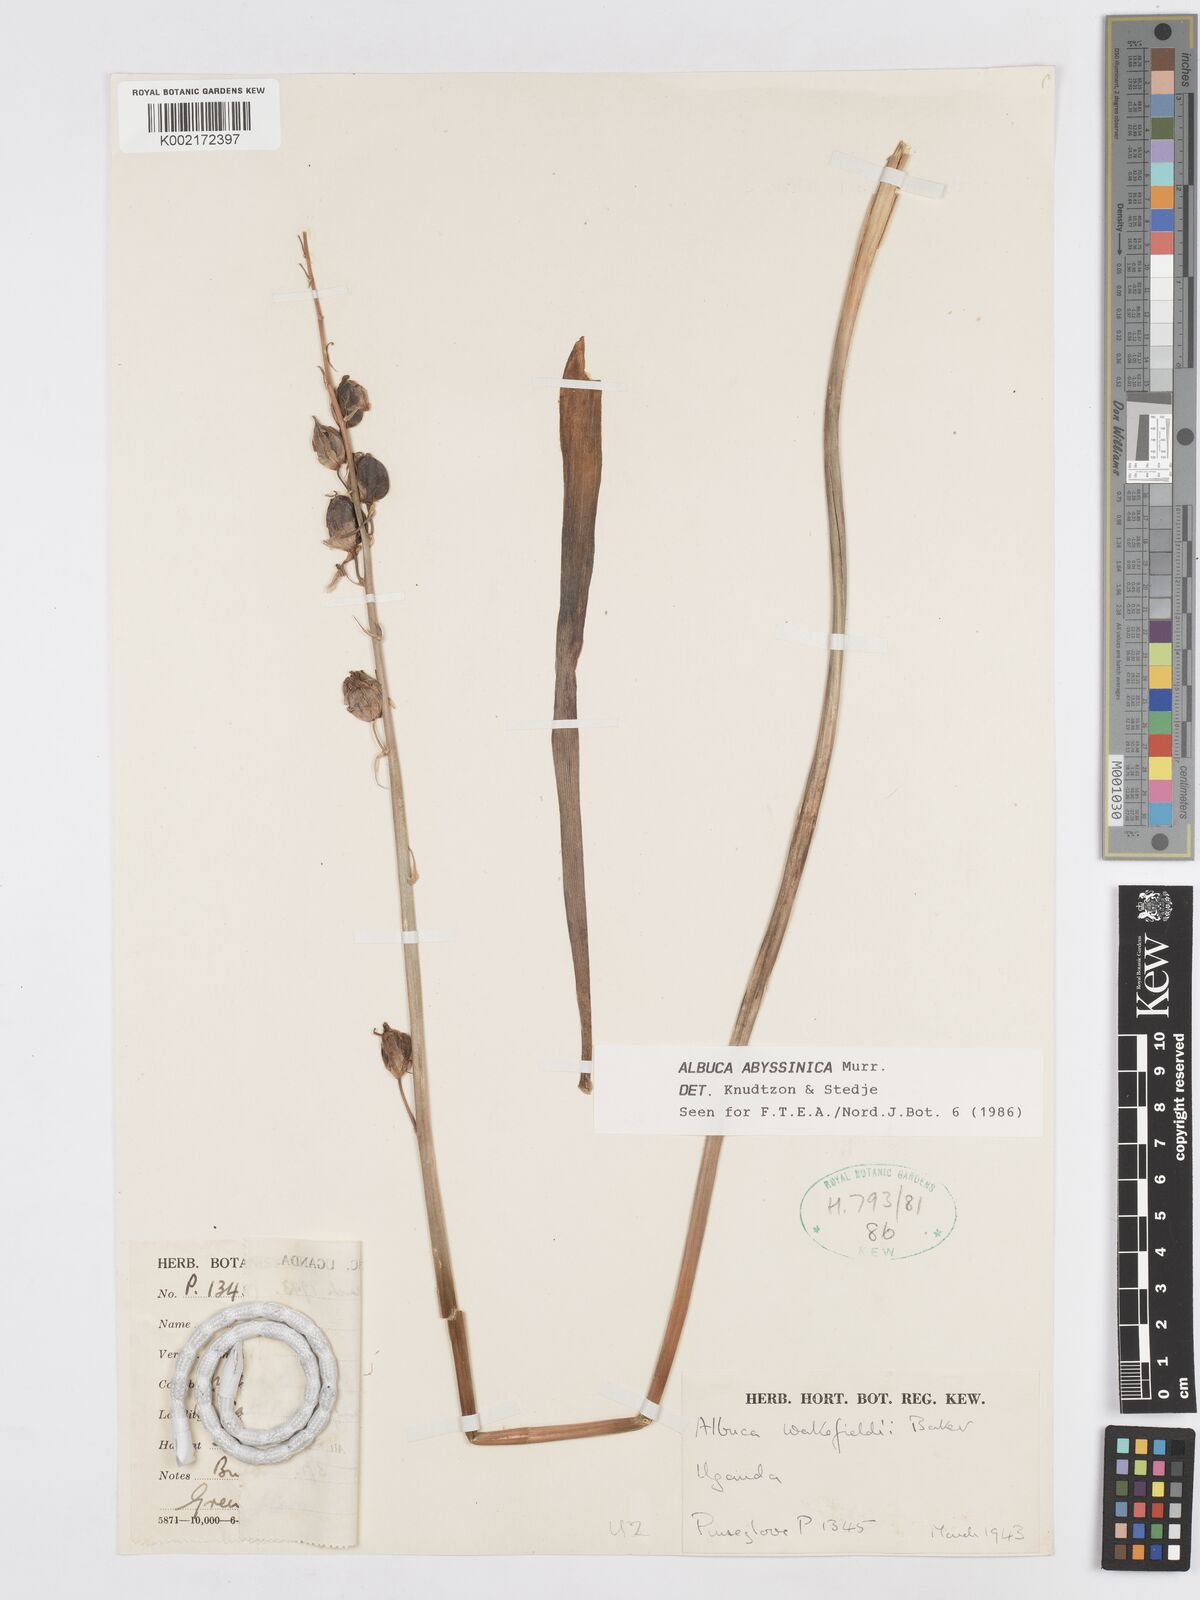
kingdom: Plantae
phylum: Tracheophyta
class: Liliopsida
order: Asparagales
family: Asparagaceae
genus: Albuca
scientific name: Albuca abyssinica
